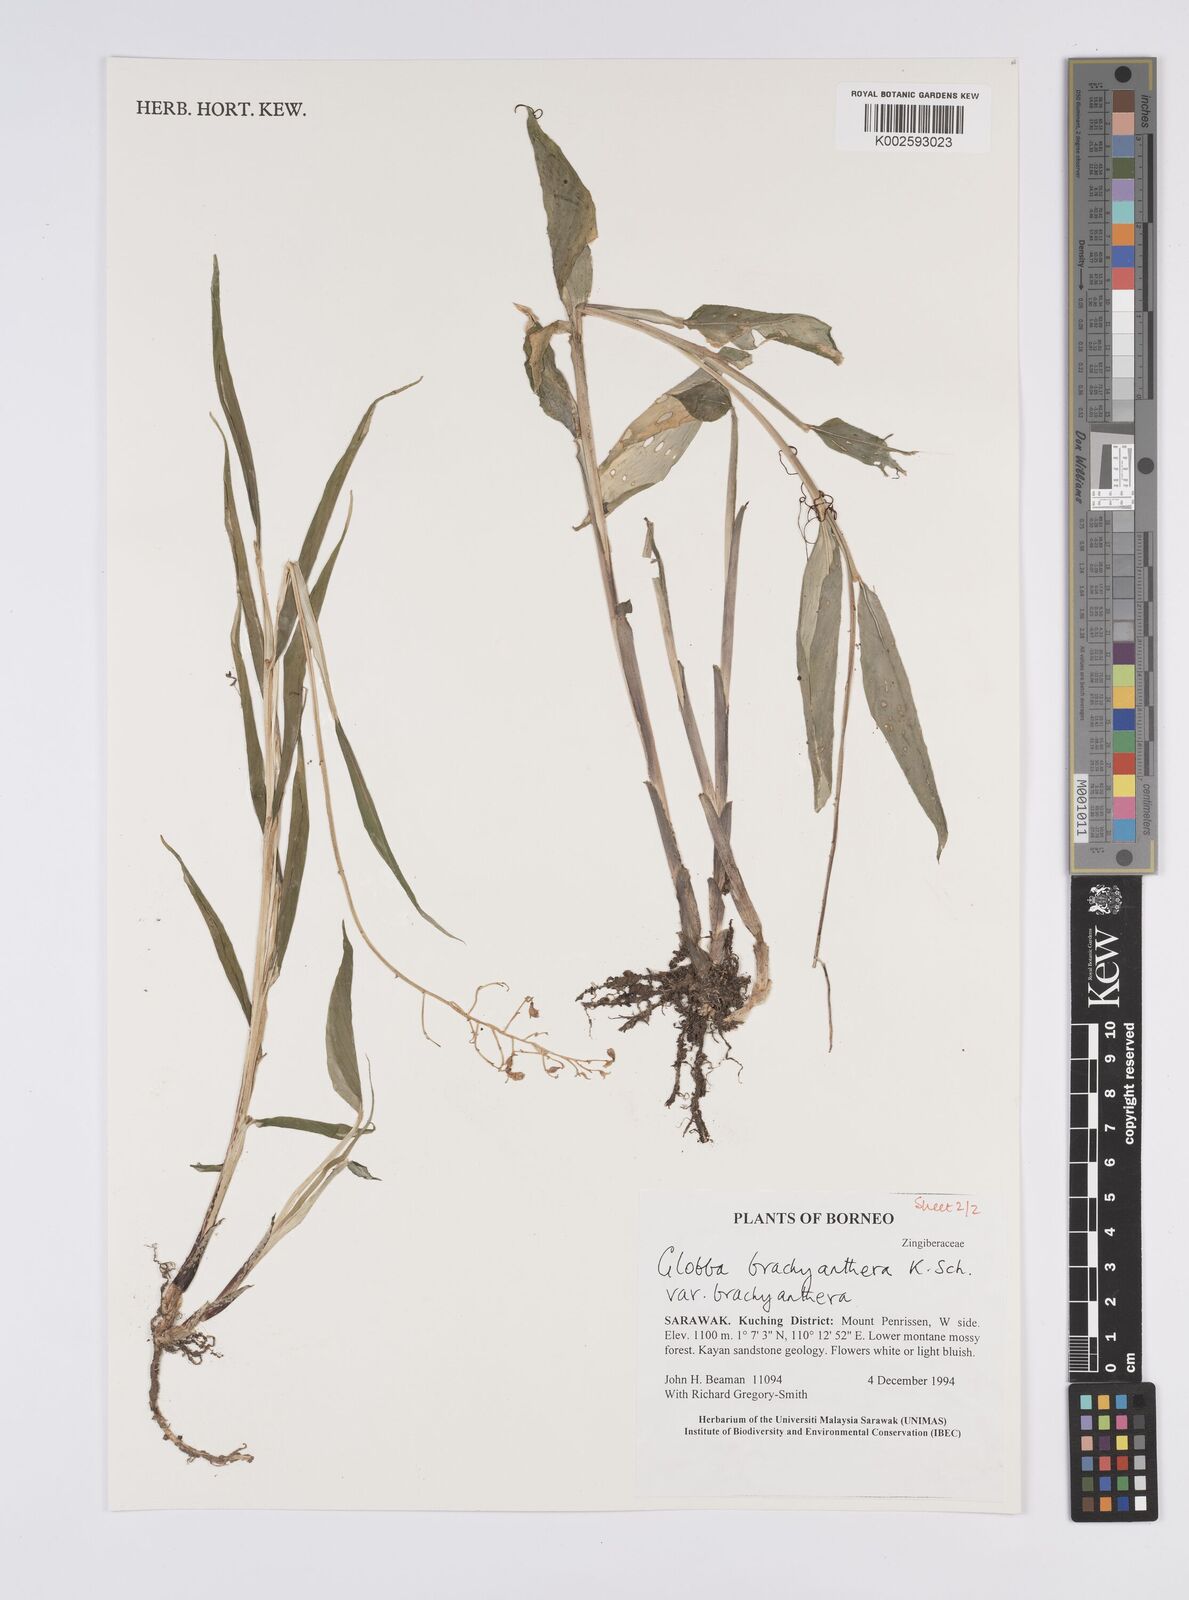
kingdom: Plantae
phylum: Tracheophyta
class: Liliopsida
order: Zingiberales
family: Zingiberaceae
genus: Globba
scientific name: Globba brachyanthera
